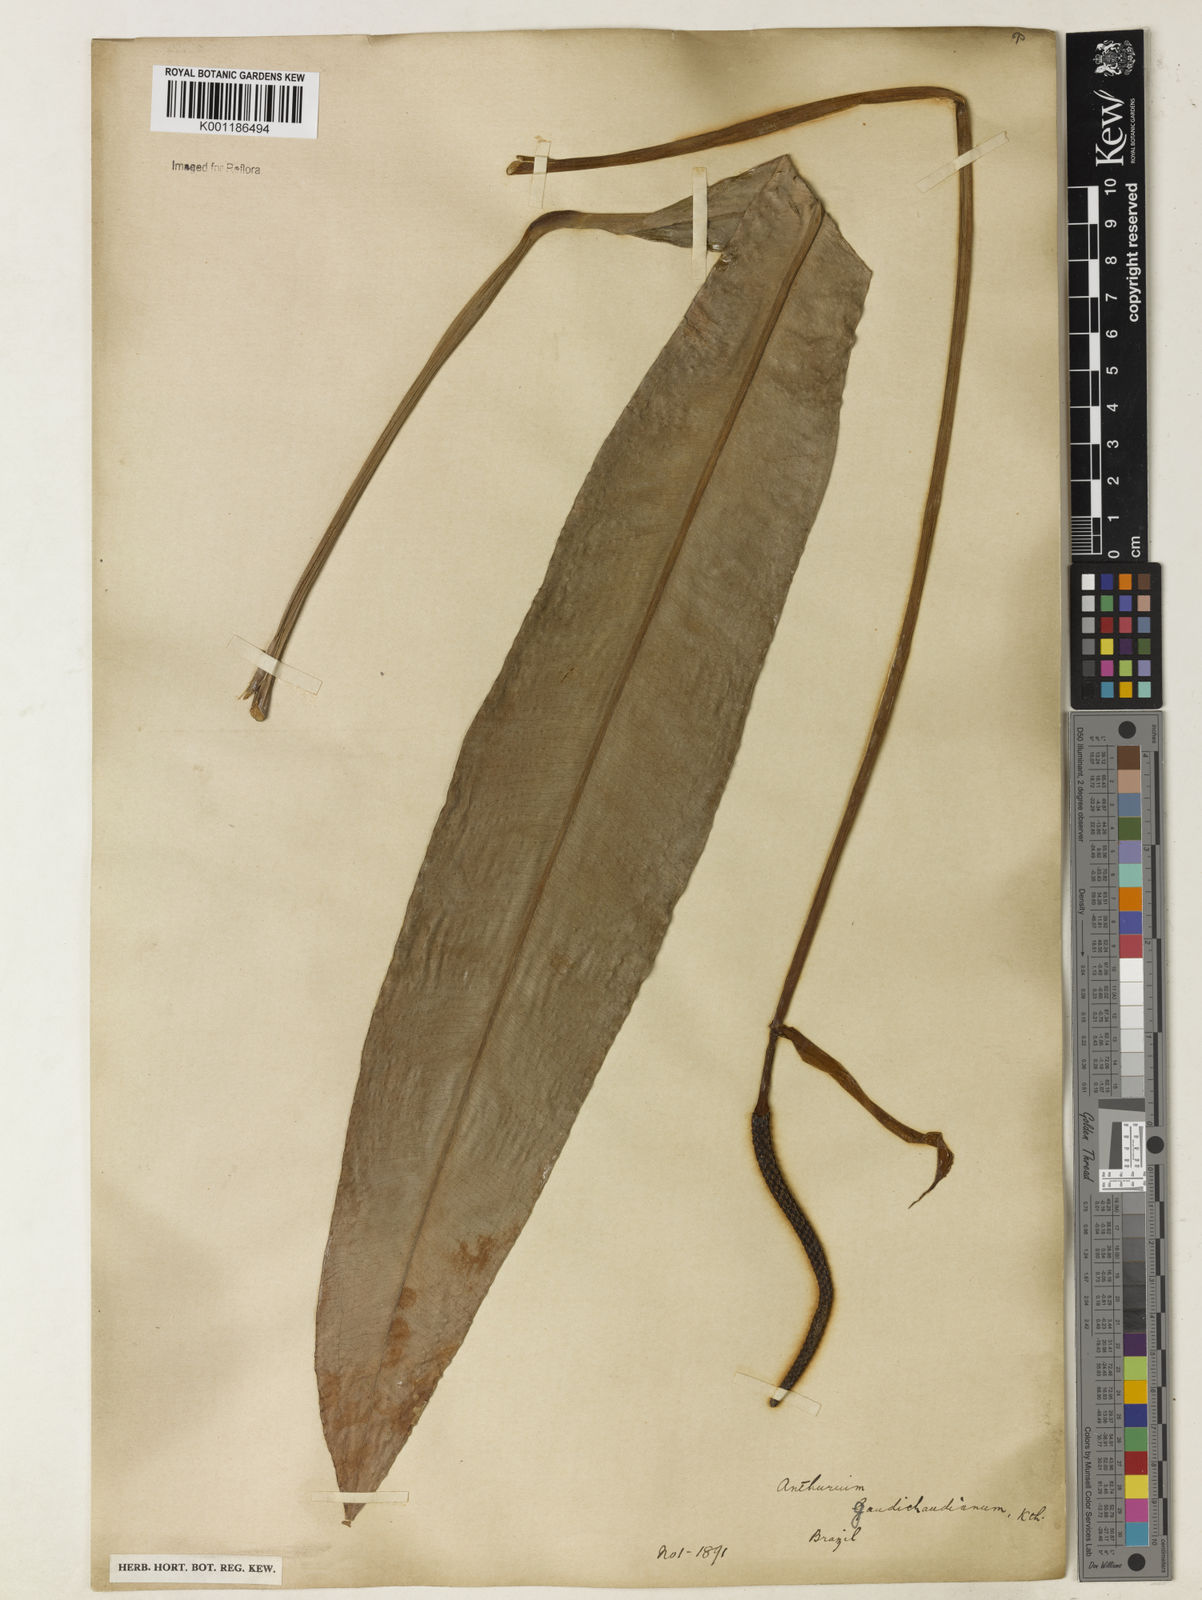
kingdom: Plantae
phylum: Tracheophyta
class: Liliopsida
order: Alismatales
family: Araceae
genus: Anthurium
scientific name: Anthurium gaudichaudianum
